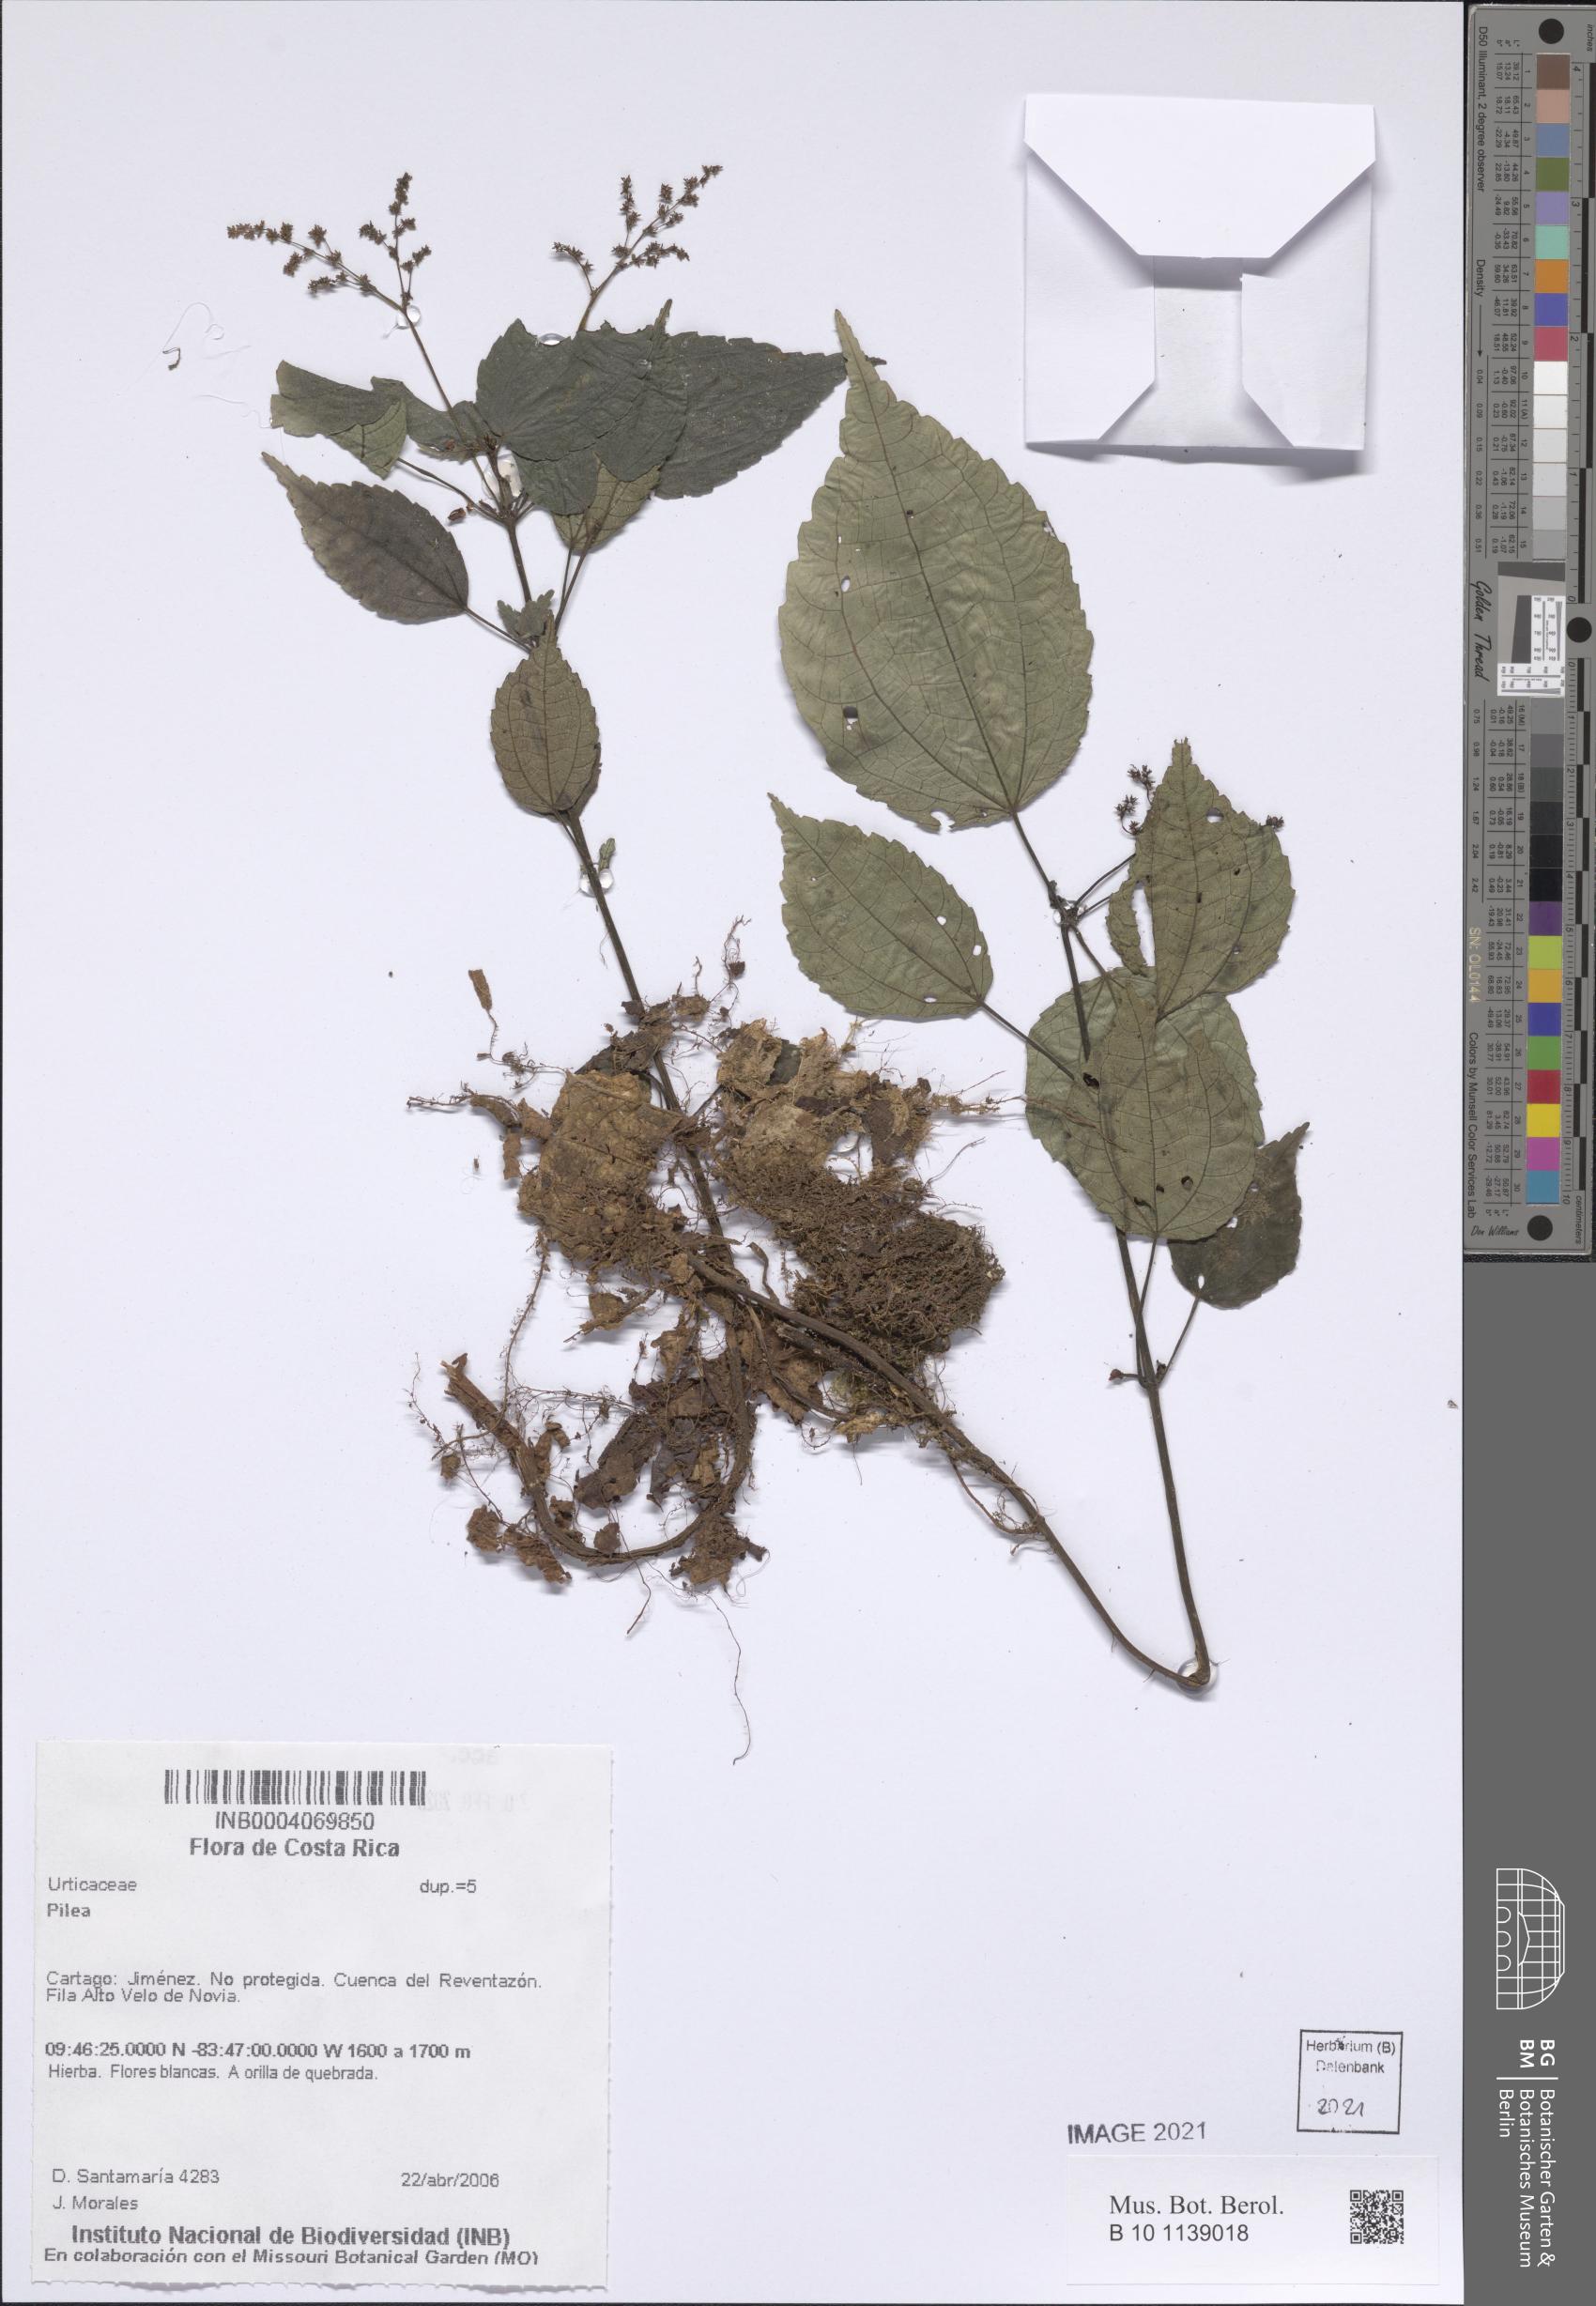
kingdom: Plantae
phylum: Tracheophyta
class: Magnoliopsida
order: Rosales
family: Urticaceae
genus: Pilea
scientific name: Pilea
